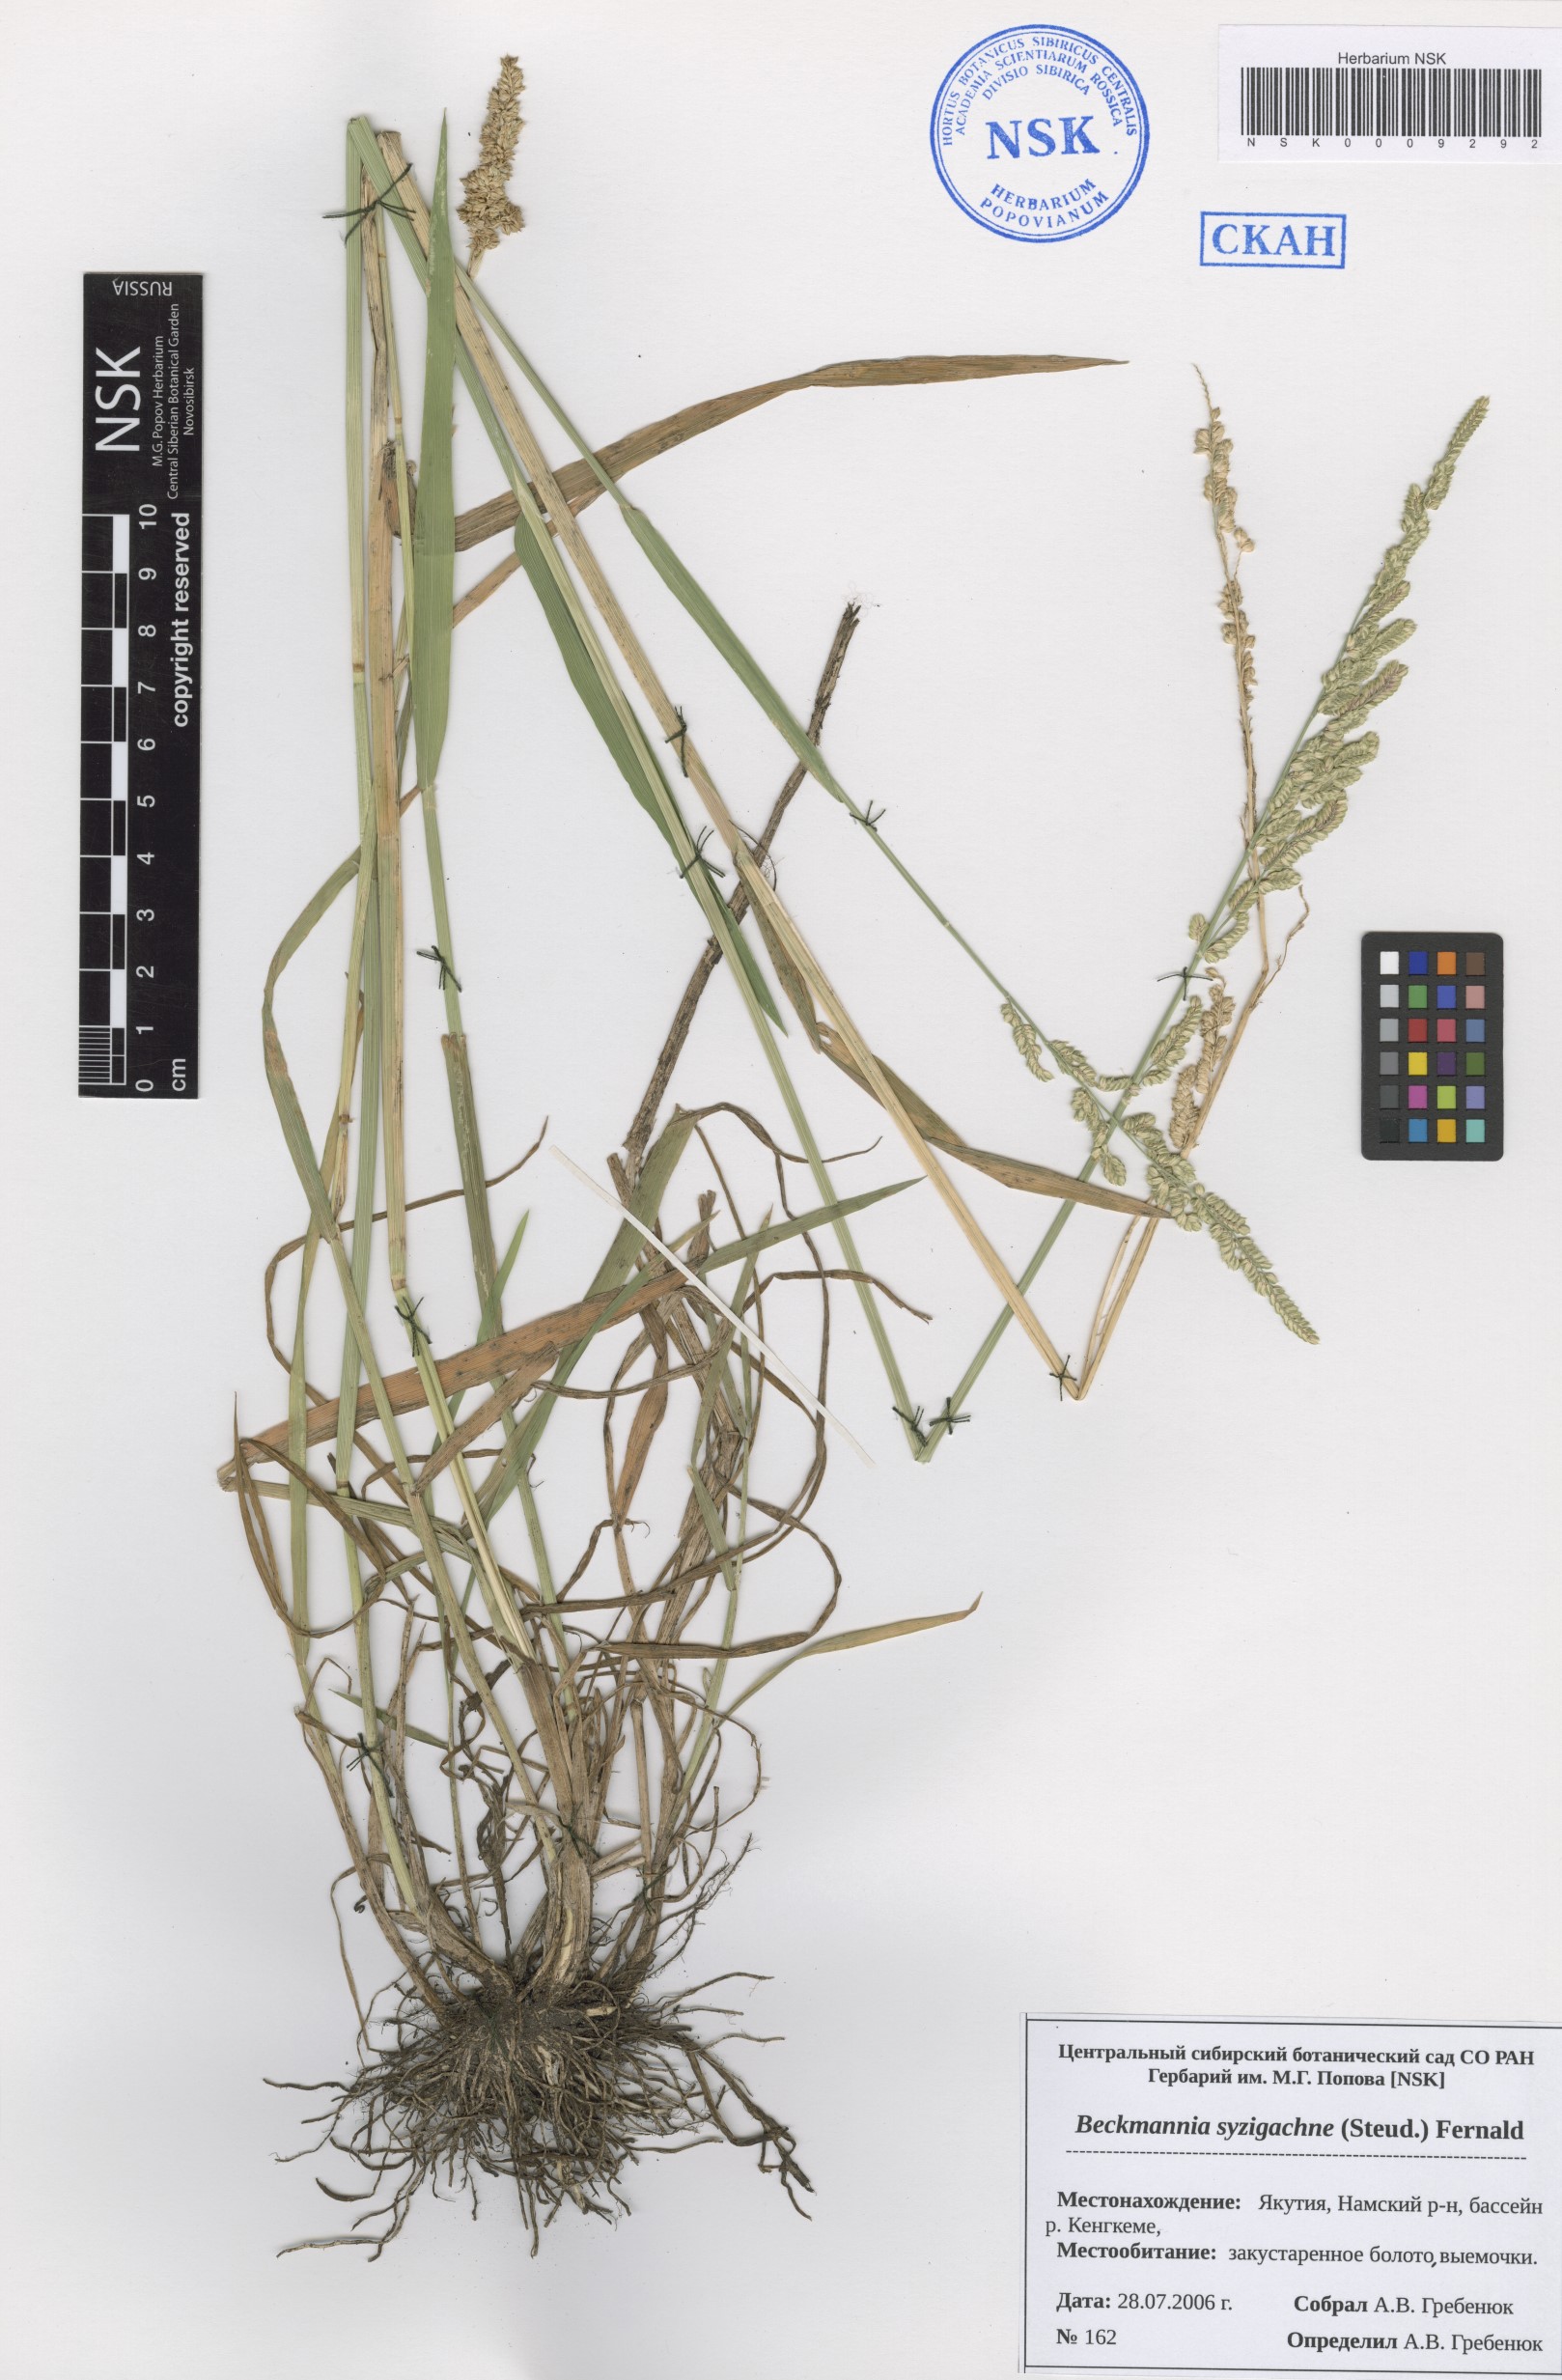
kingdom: Plantae
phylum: Tracheophyta
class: Liliopsida
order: Poales
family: Poaceae
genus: Beckmannia
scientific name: Beckmannia syzigachne
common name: American slough-grass
